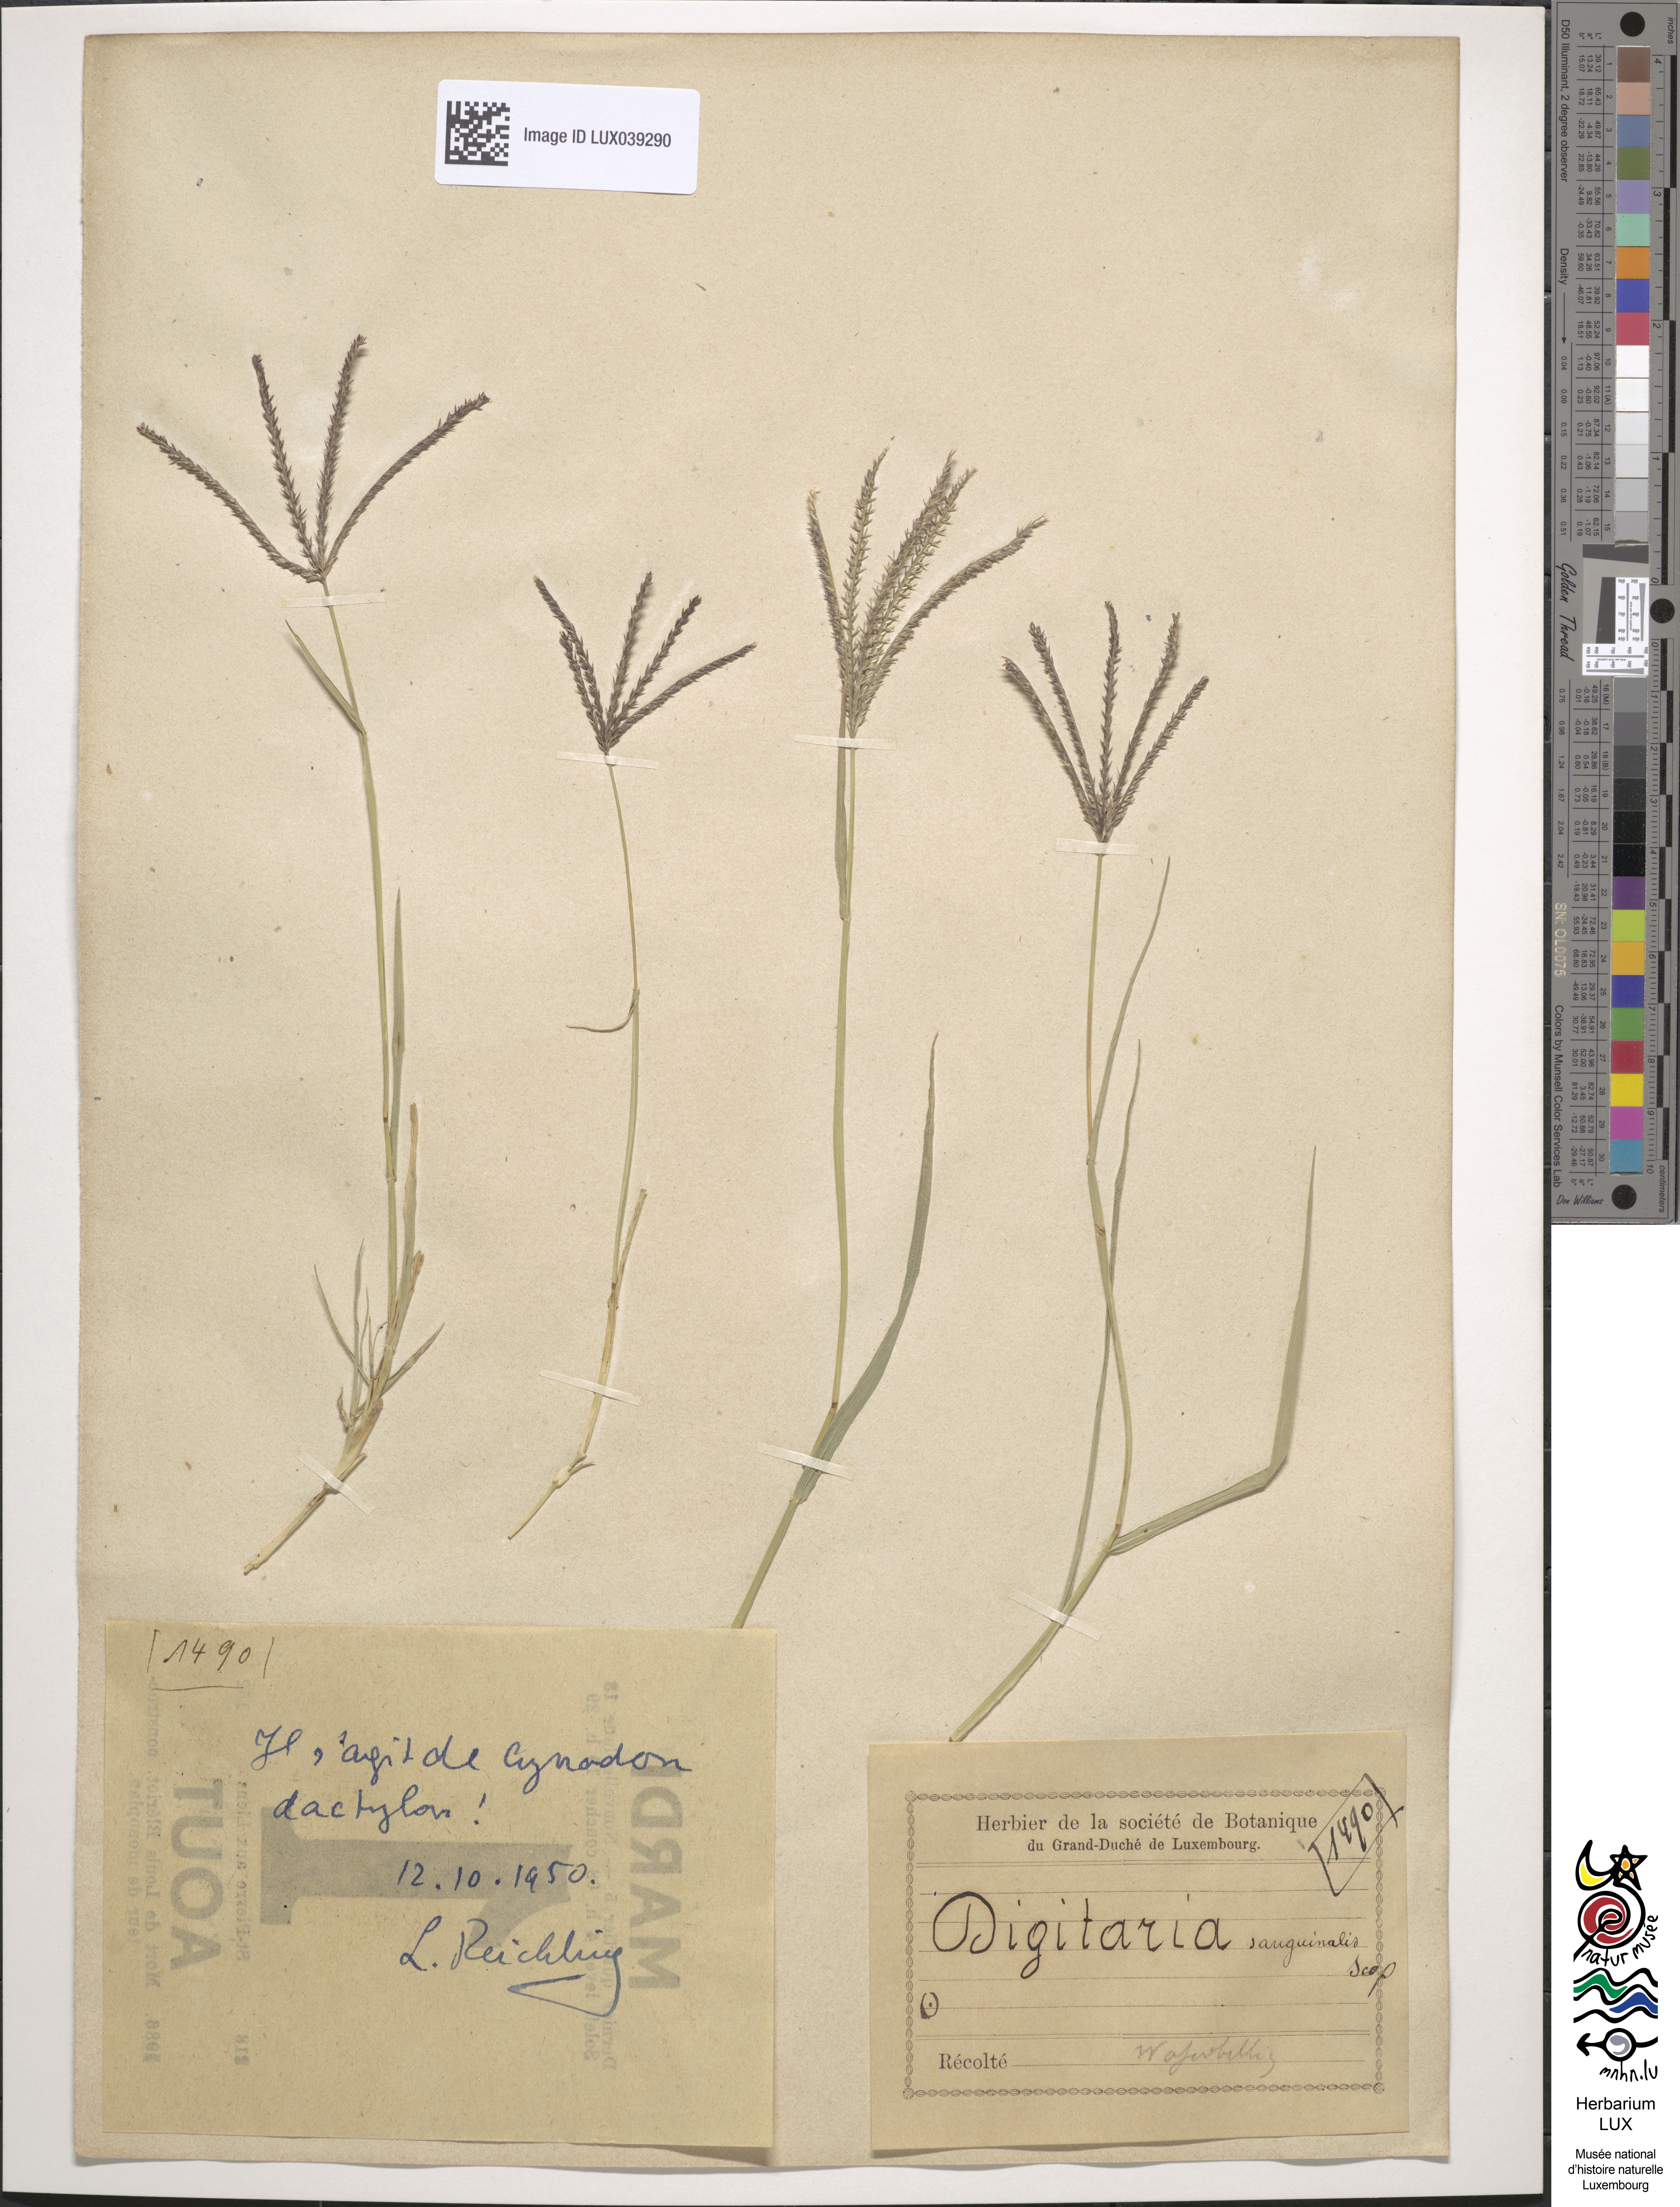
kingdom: Plantae
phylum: Tracheophyta
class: Liliopsida
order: Poales
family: Poaceae
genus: Cynodon
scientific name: Cynodon dactylon
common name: Bermuda grass
